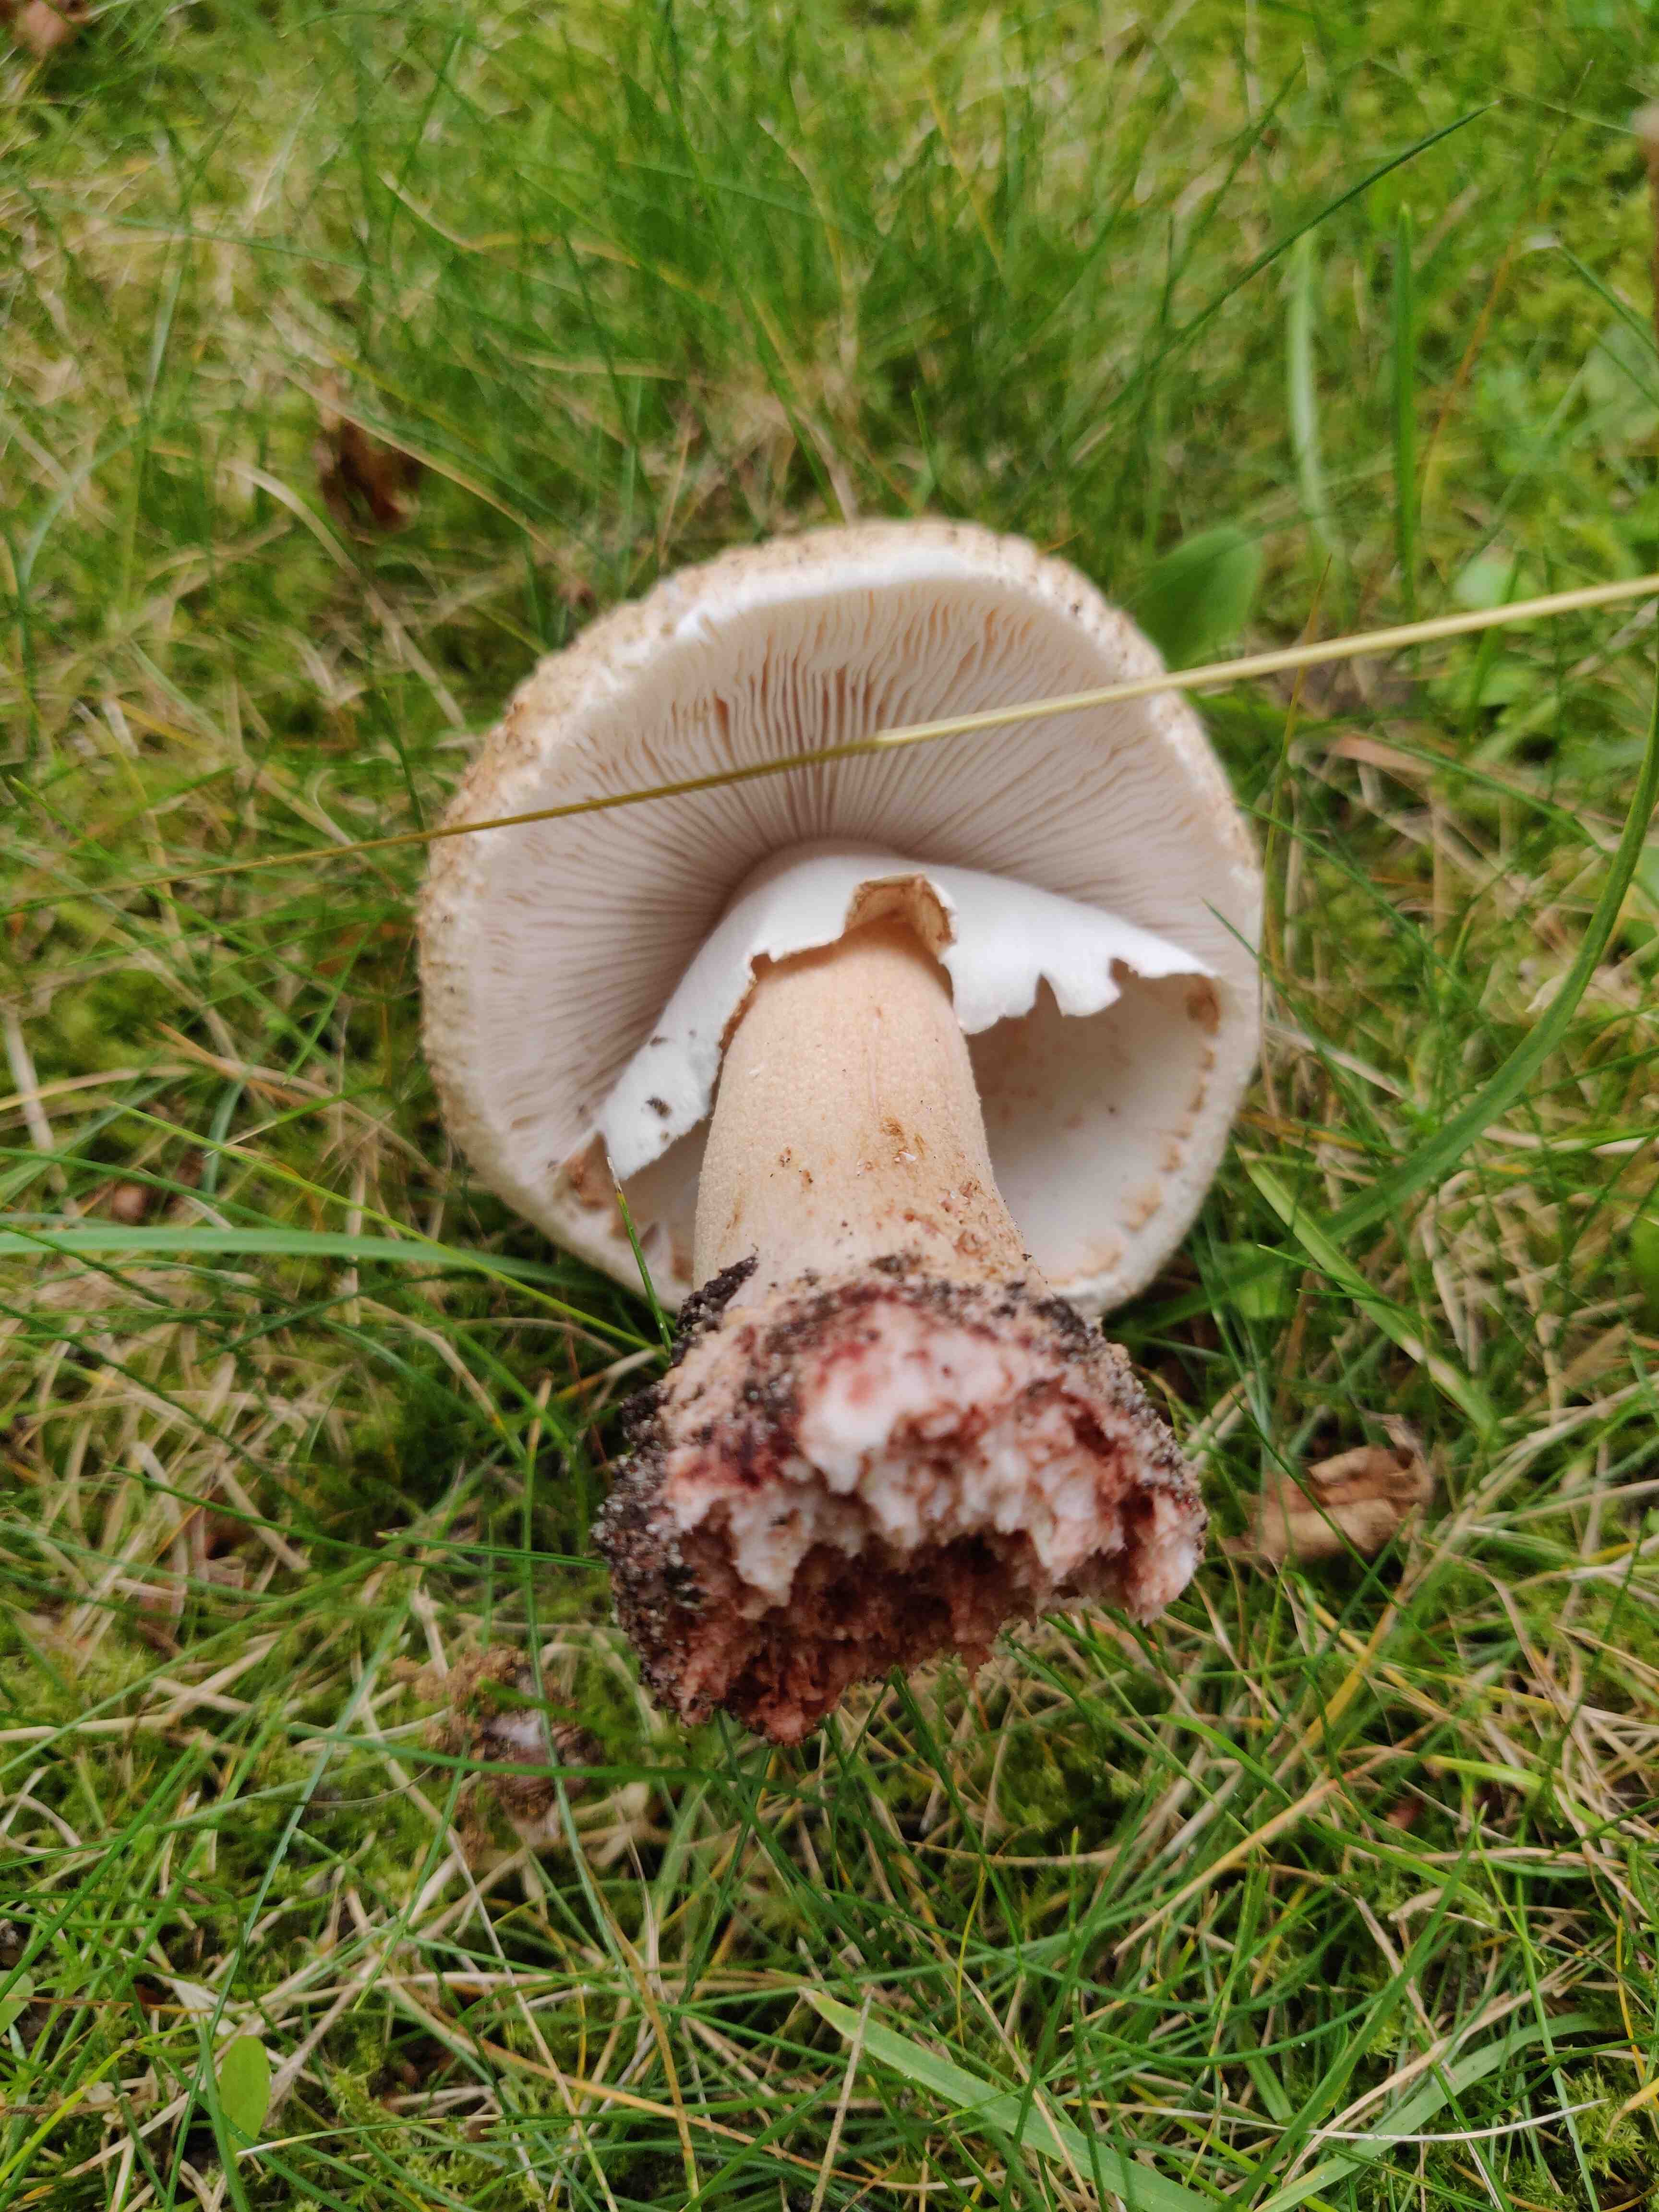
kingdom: Fungi
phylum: Basidiomycota
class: Agaricomycetes
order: Agaricales
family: Amanitaceae
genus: Amanita
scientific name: Amanita rubescens
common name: rødmende fluesvamp
